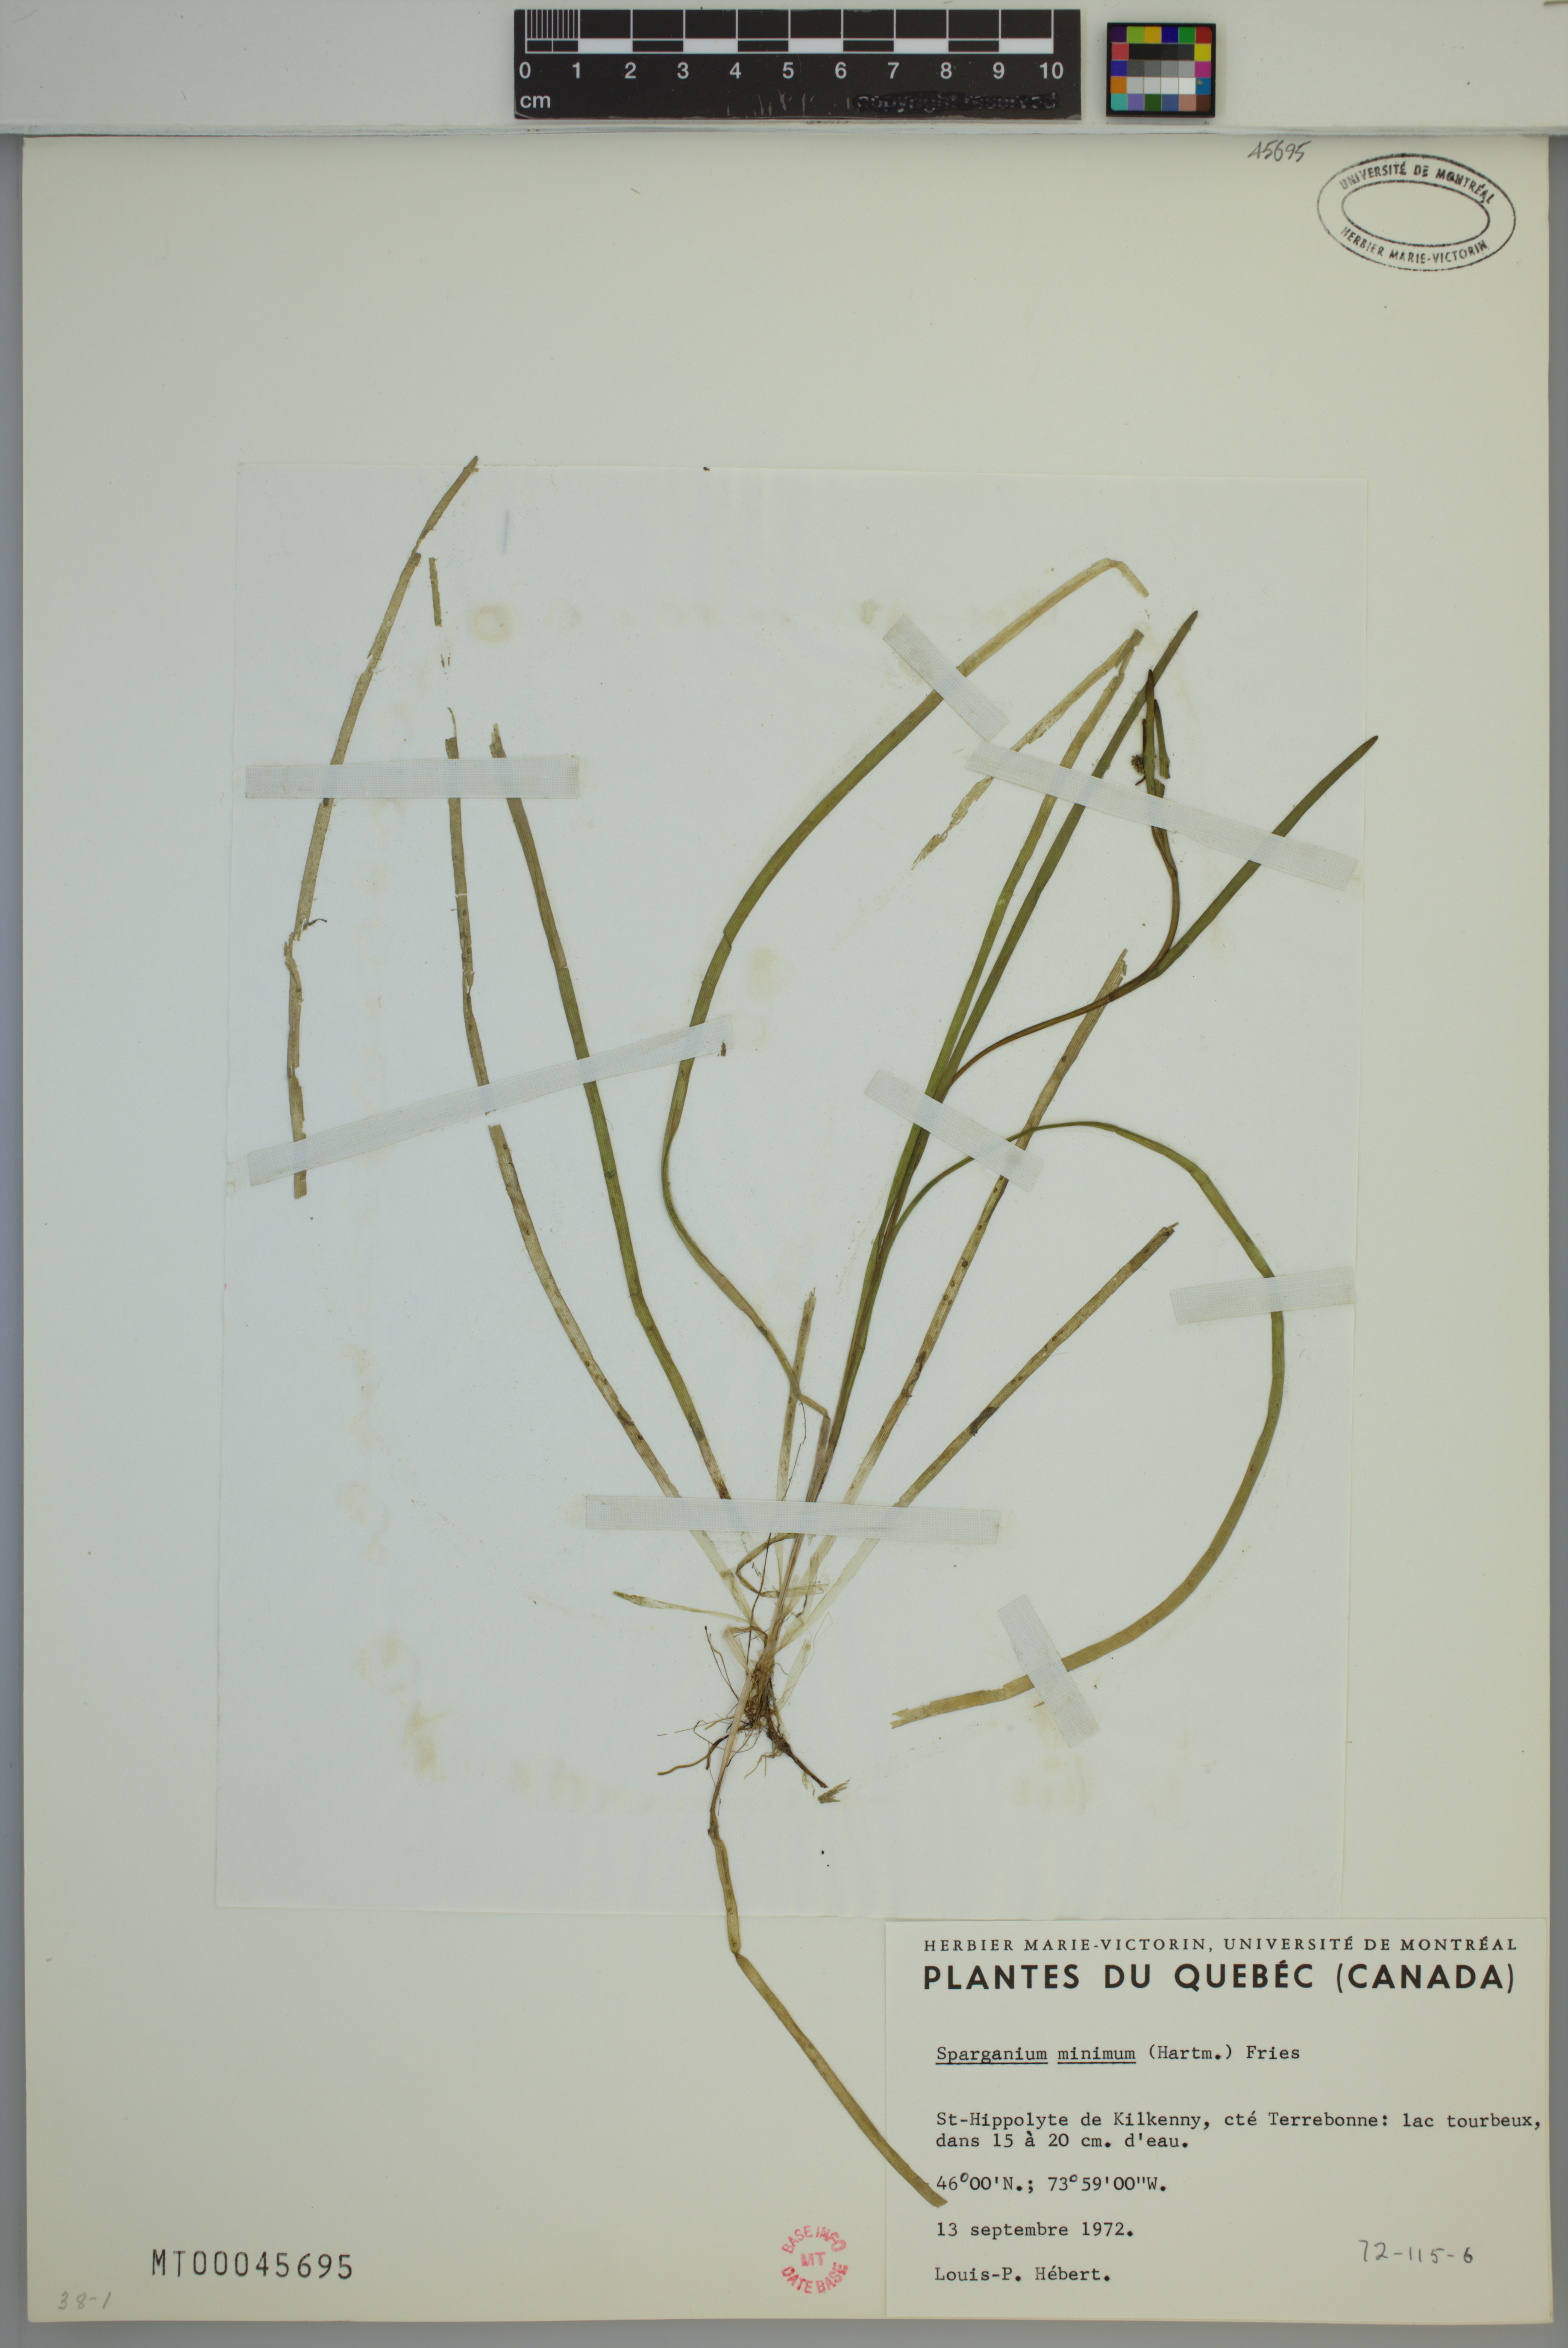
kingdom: Plantae
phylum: Tracheophyta
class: Liliopsida
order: Poales
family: Typhaceae
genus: Sparganium
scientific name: Sparganium natans
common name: Least bur-reed
